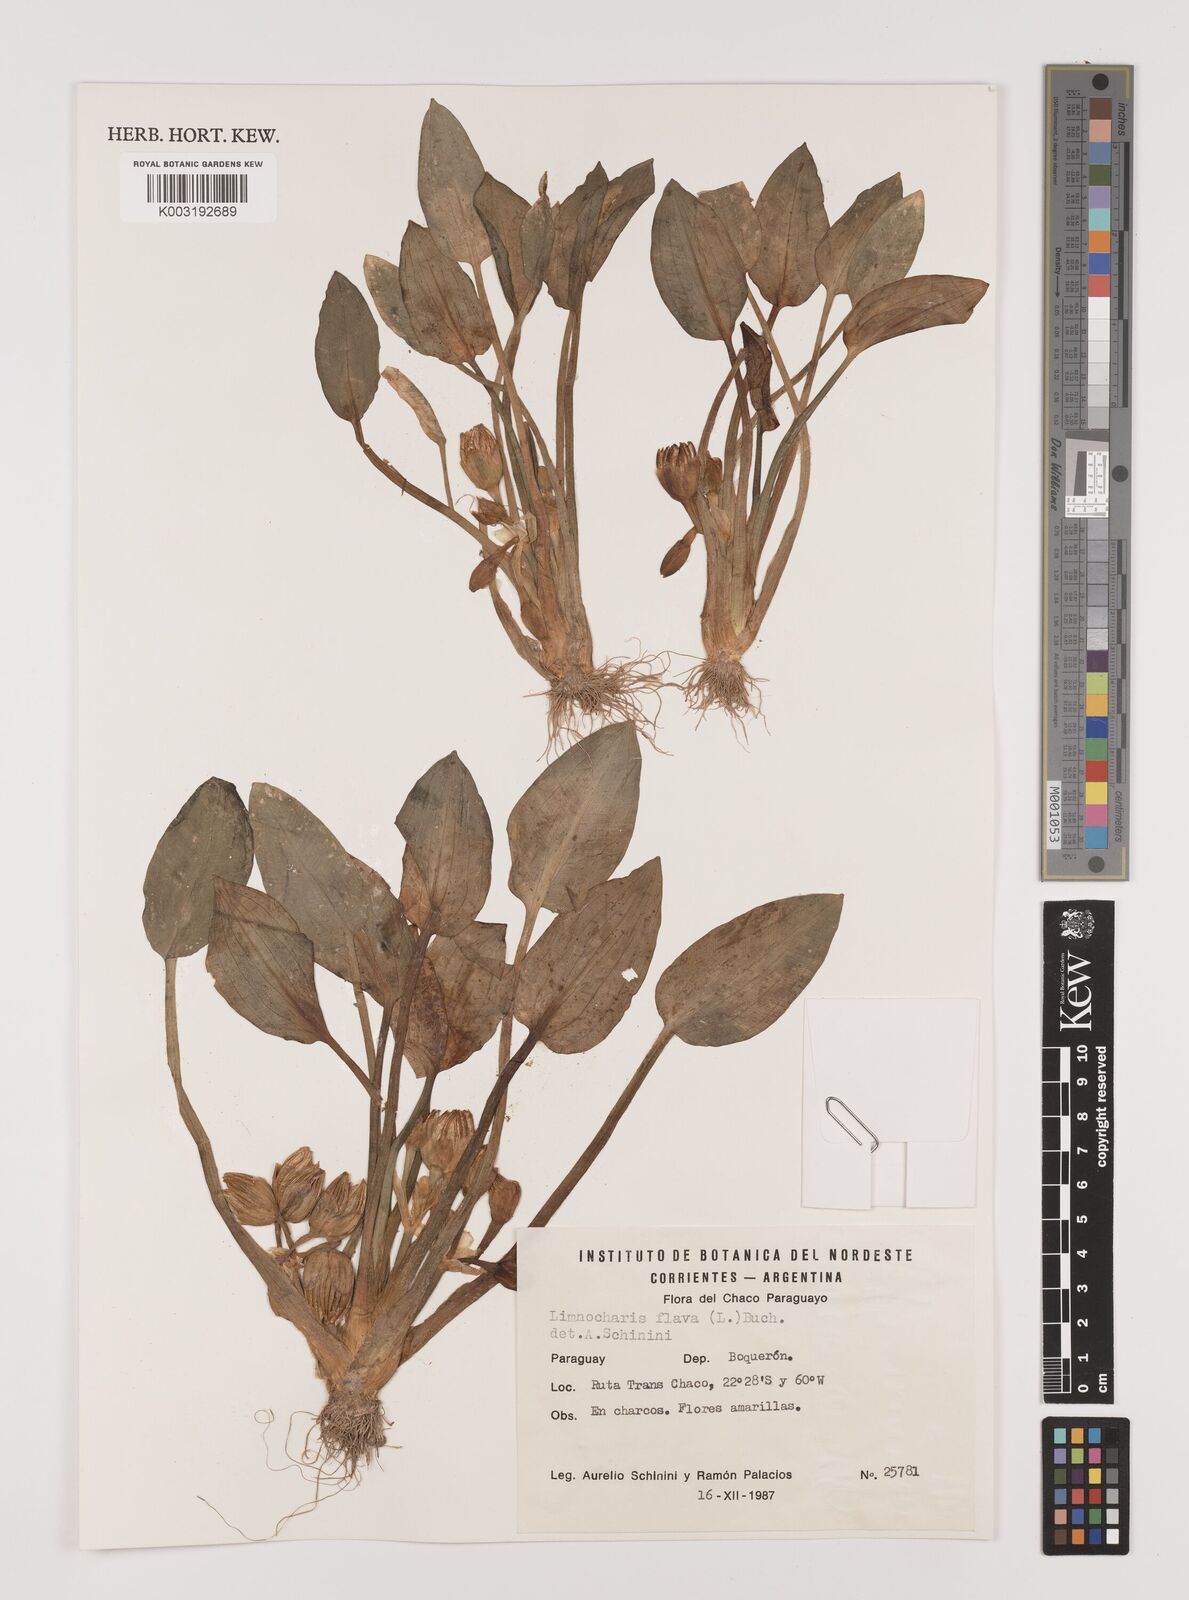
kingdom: Plantae
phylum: Tracheophyta
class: Liliopsida
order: Alismatales
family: Alismataceae
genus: Limnocharis
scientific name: Limnocharis flava
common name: Sawah-flower-rush
